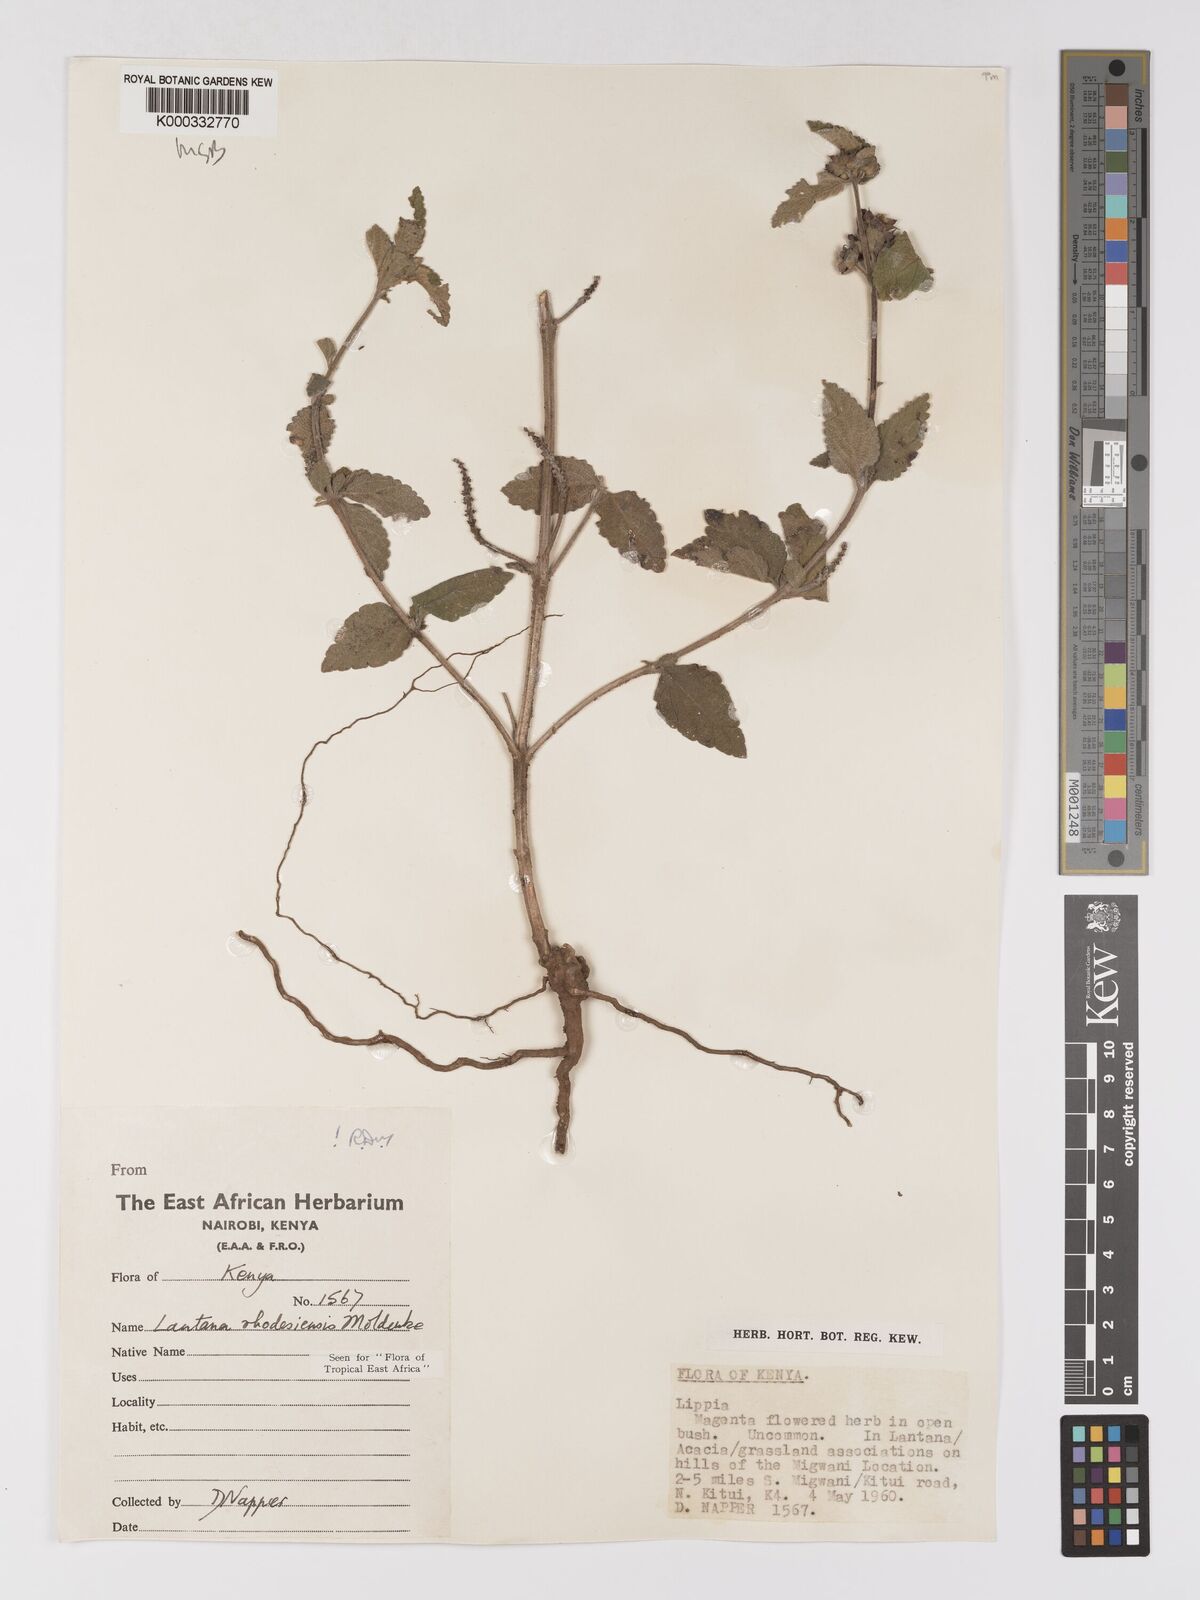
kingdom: Plantae
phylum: Tracheophyta
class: Magnoliopsida
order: Lamiales
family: Verbenaceae
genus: Lantana
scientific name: Lantana ukambensis
